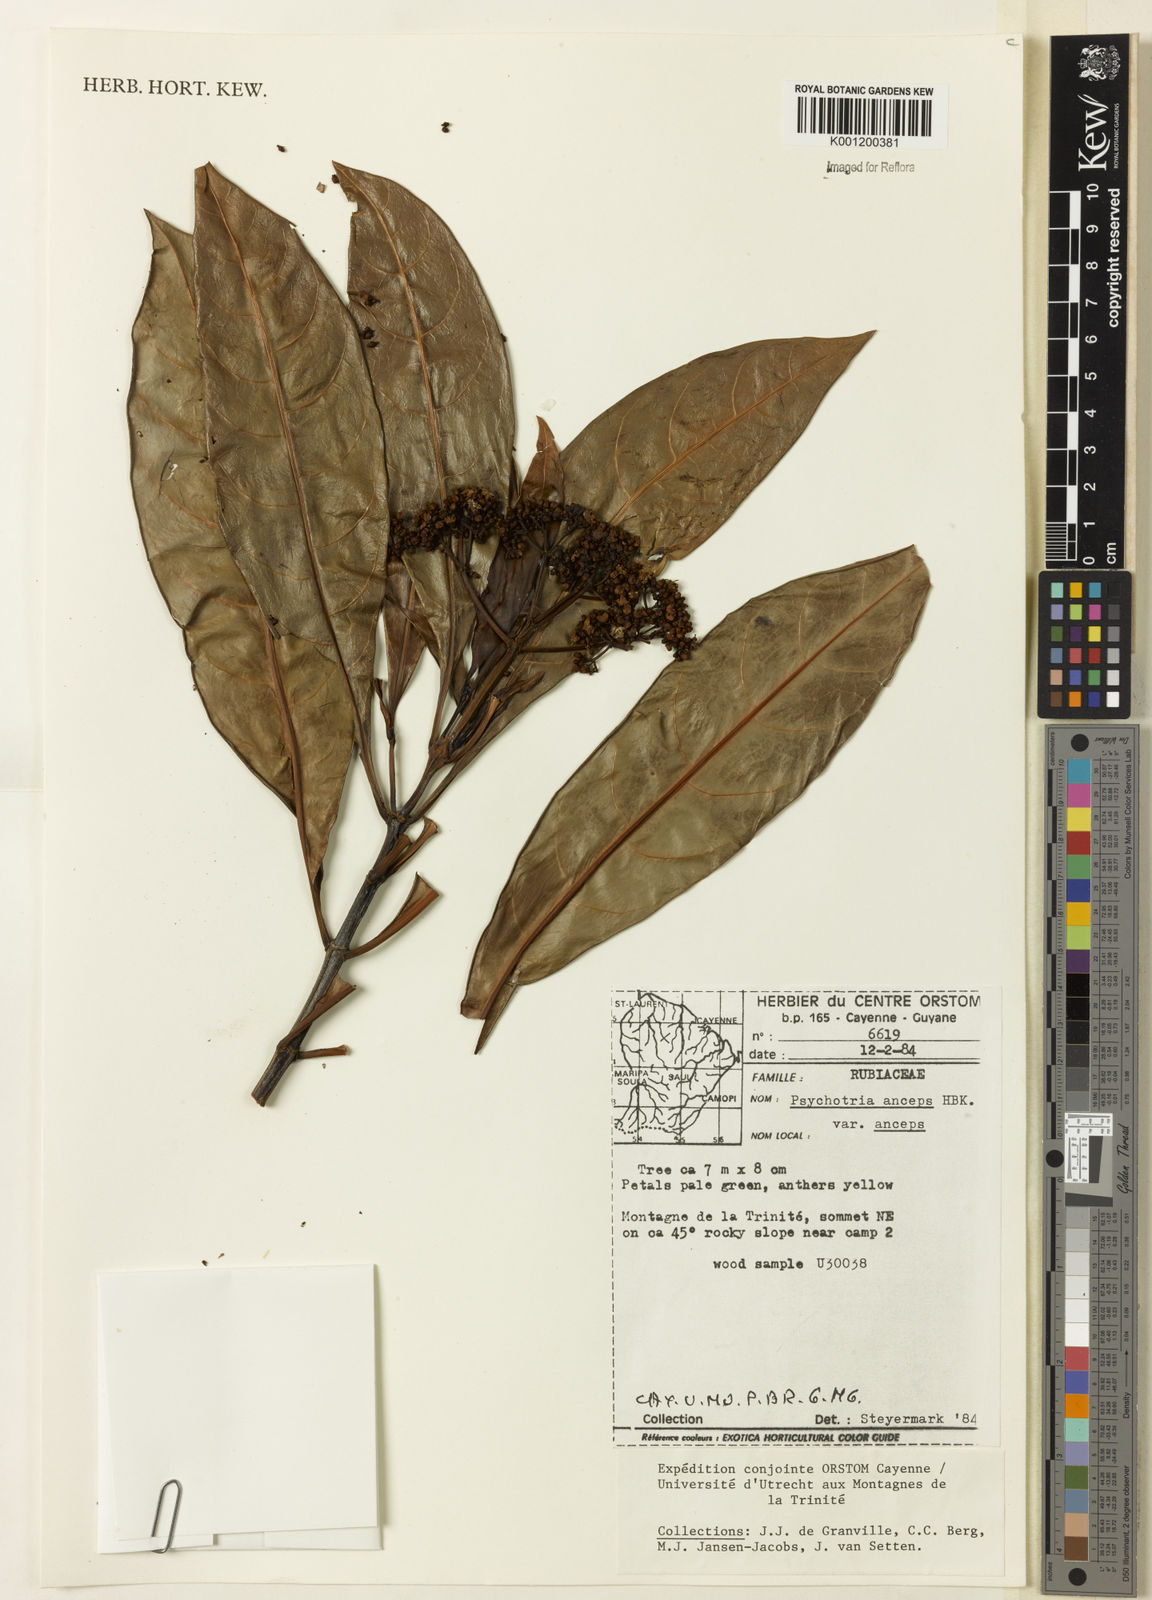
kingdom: Plantae
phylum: Tracheophyta
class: Magnoliopsida
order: Gentianales
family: Rubiaceae
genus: Psychotria
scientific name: Psychotria anceps
